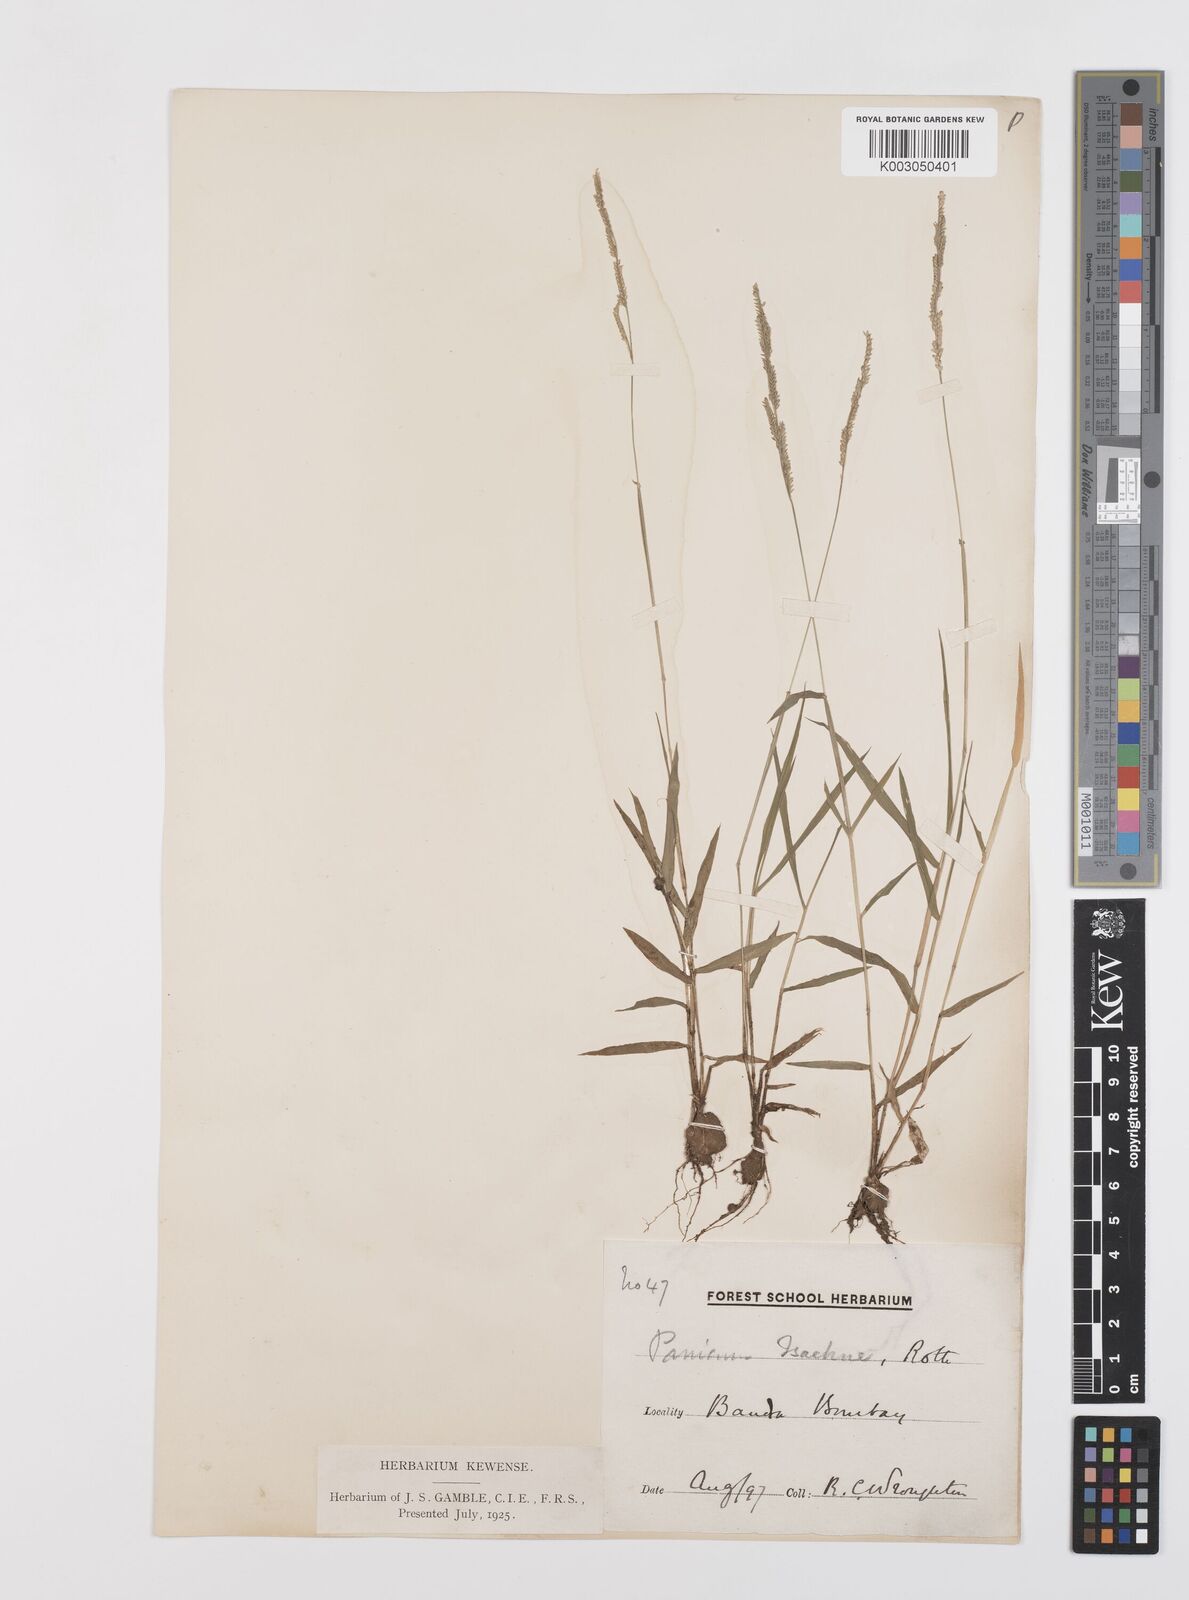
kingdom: Plantae
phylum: Tracheophyta
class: Liliopsida
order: Poales
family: Poaceae
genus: Moorochloa
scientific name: Moorochloa eruciformis
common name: Sweet signalgrass
